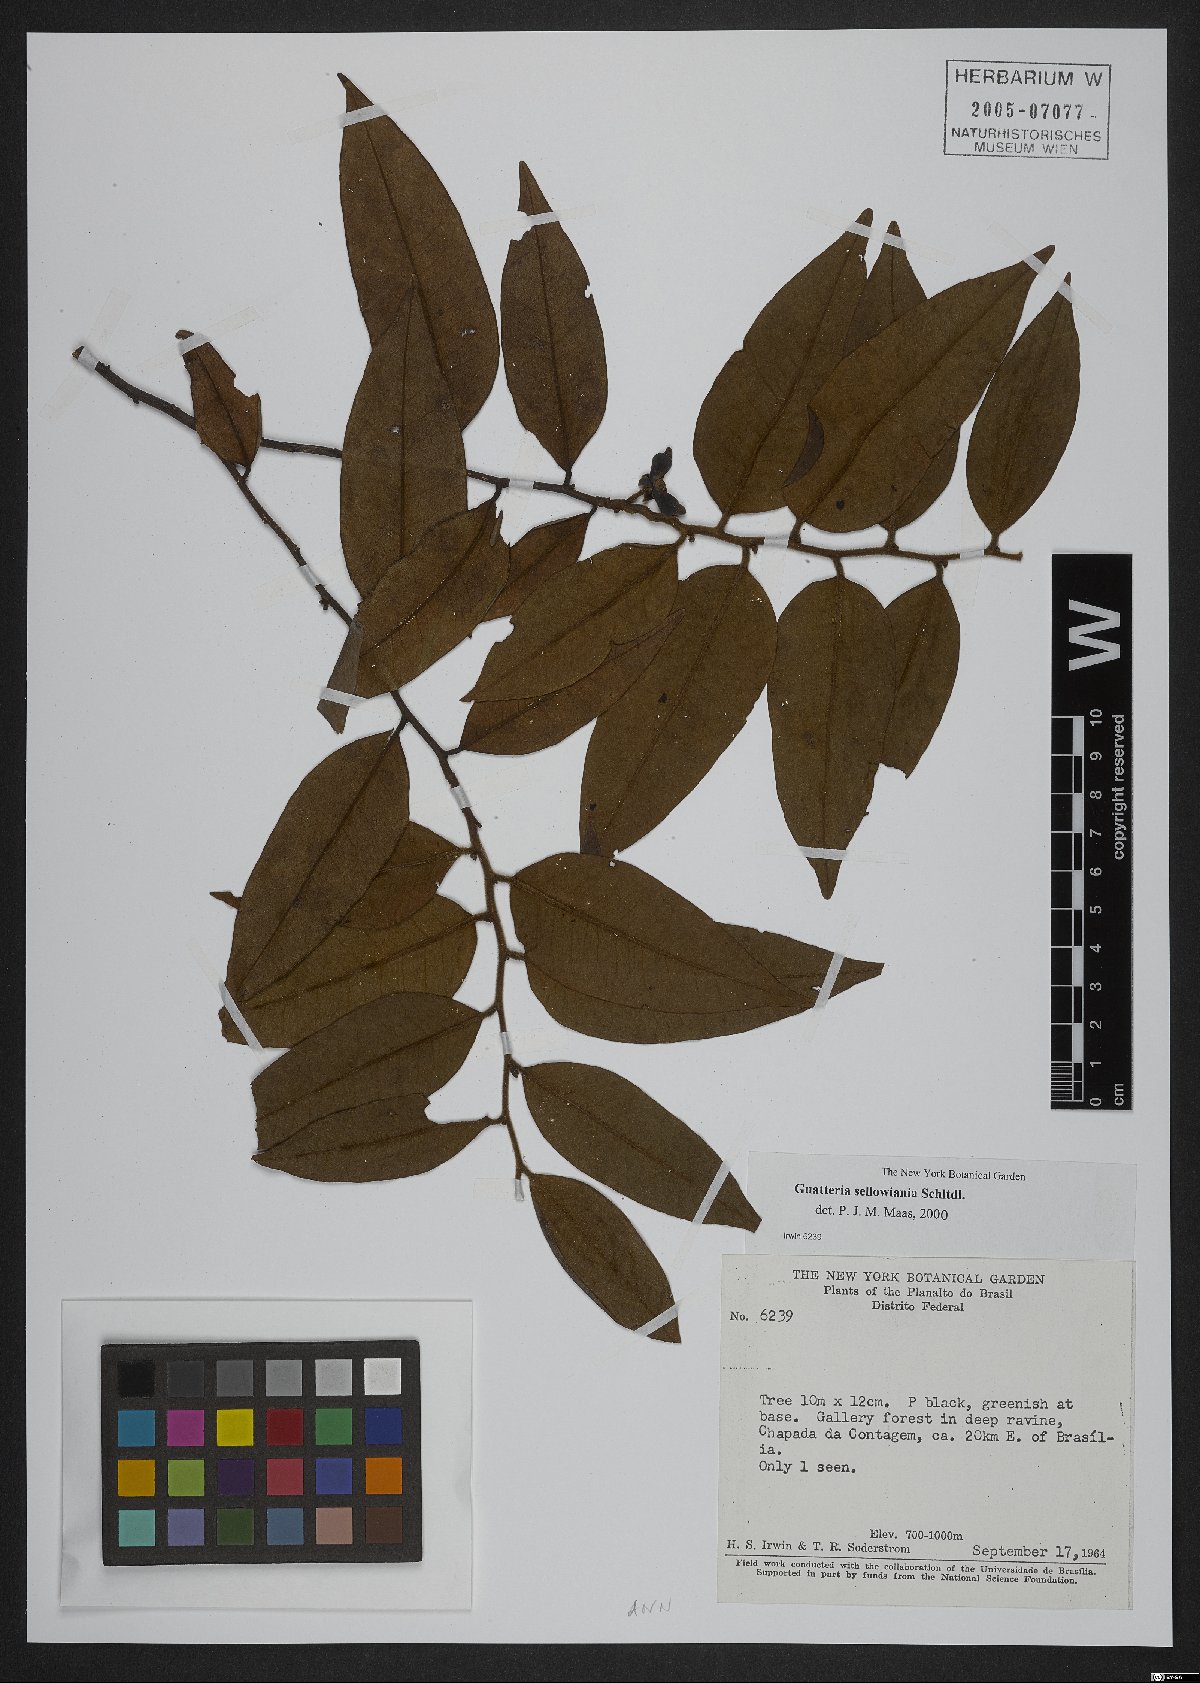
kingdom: Plantae
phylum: Tracheophyta
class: Magnoliopsida
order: Magnoliales
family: Annonaceae
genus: Guatteria
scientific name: Guatteria sellowiana
